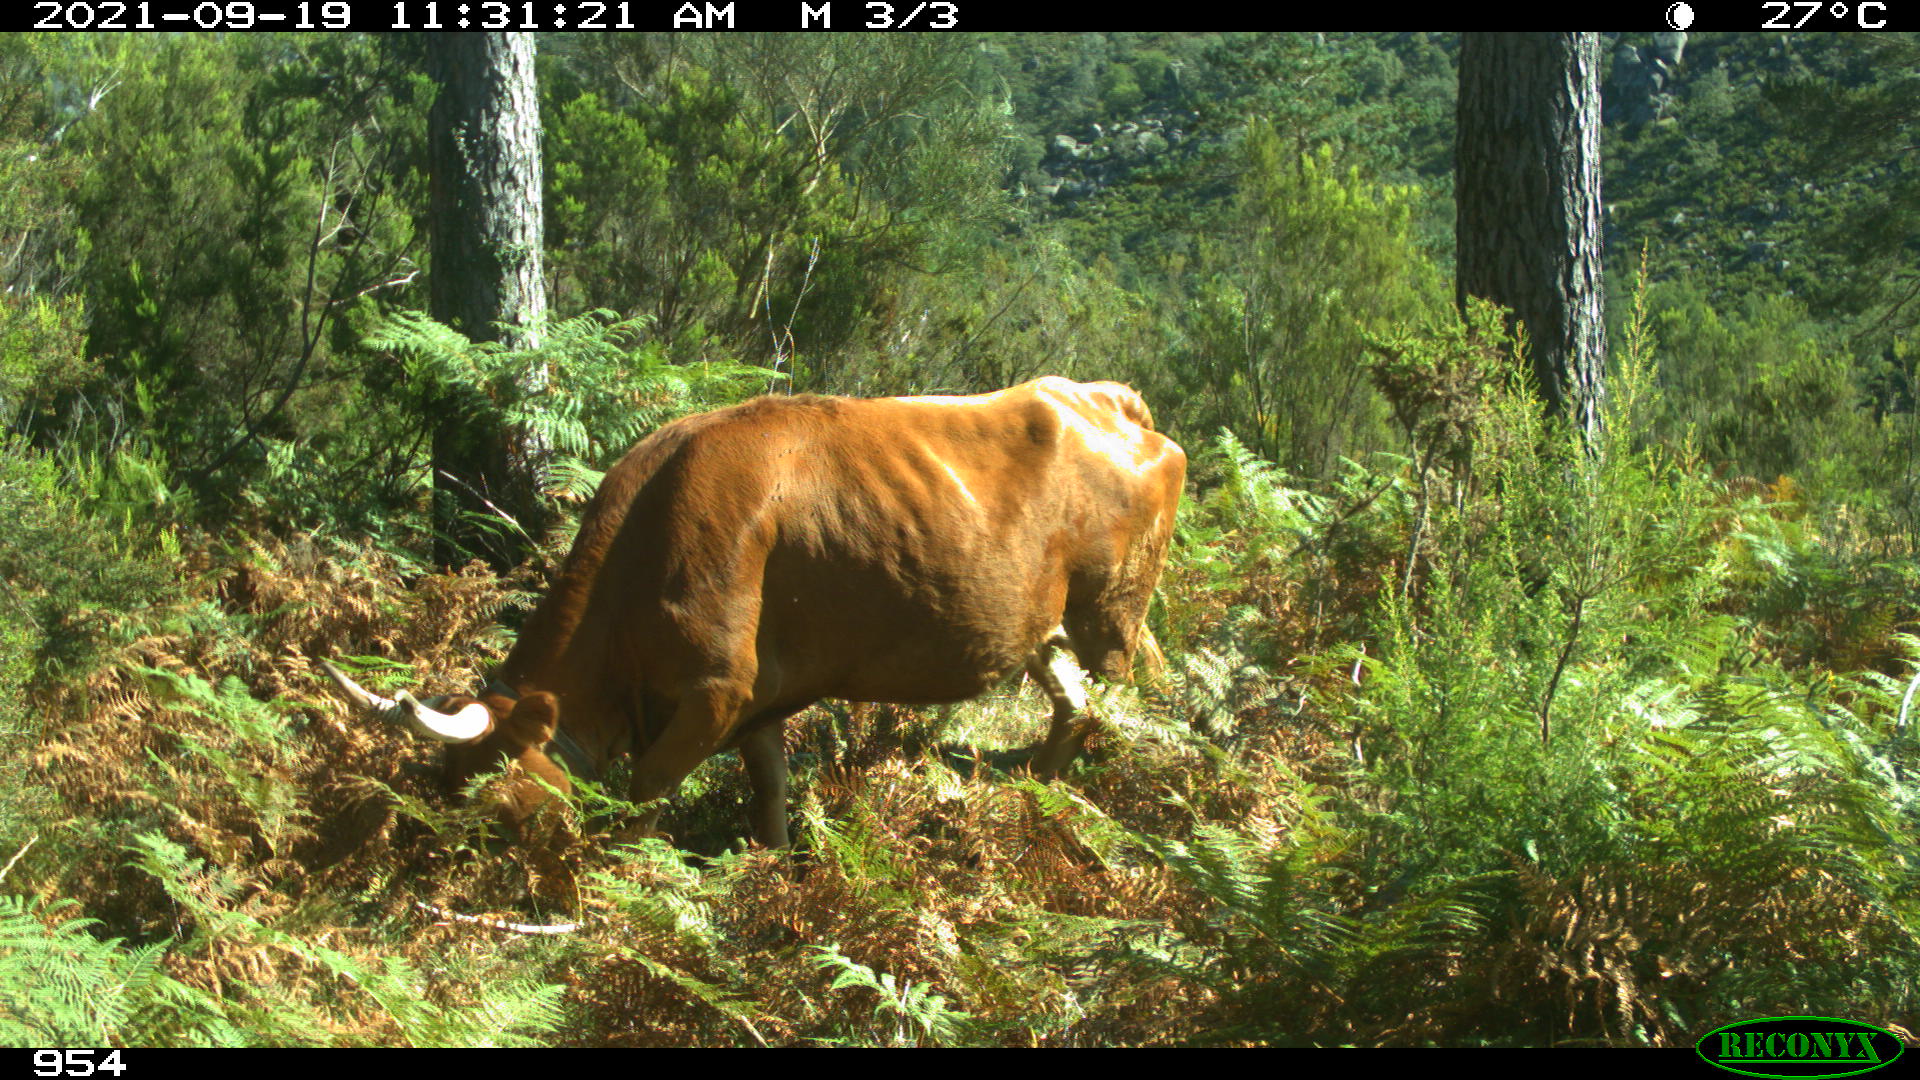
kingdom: Animalia
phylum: Chordata
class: Mammalia
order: Artiodactyla
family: Bovidae
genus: Bos
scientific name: Bos taurus
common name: Domesticated cattle
